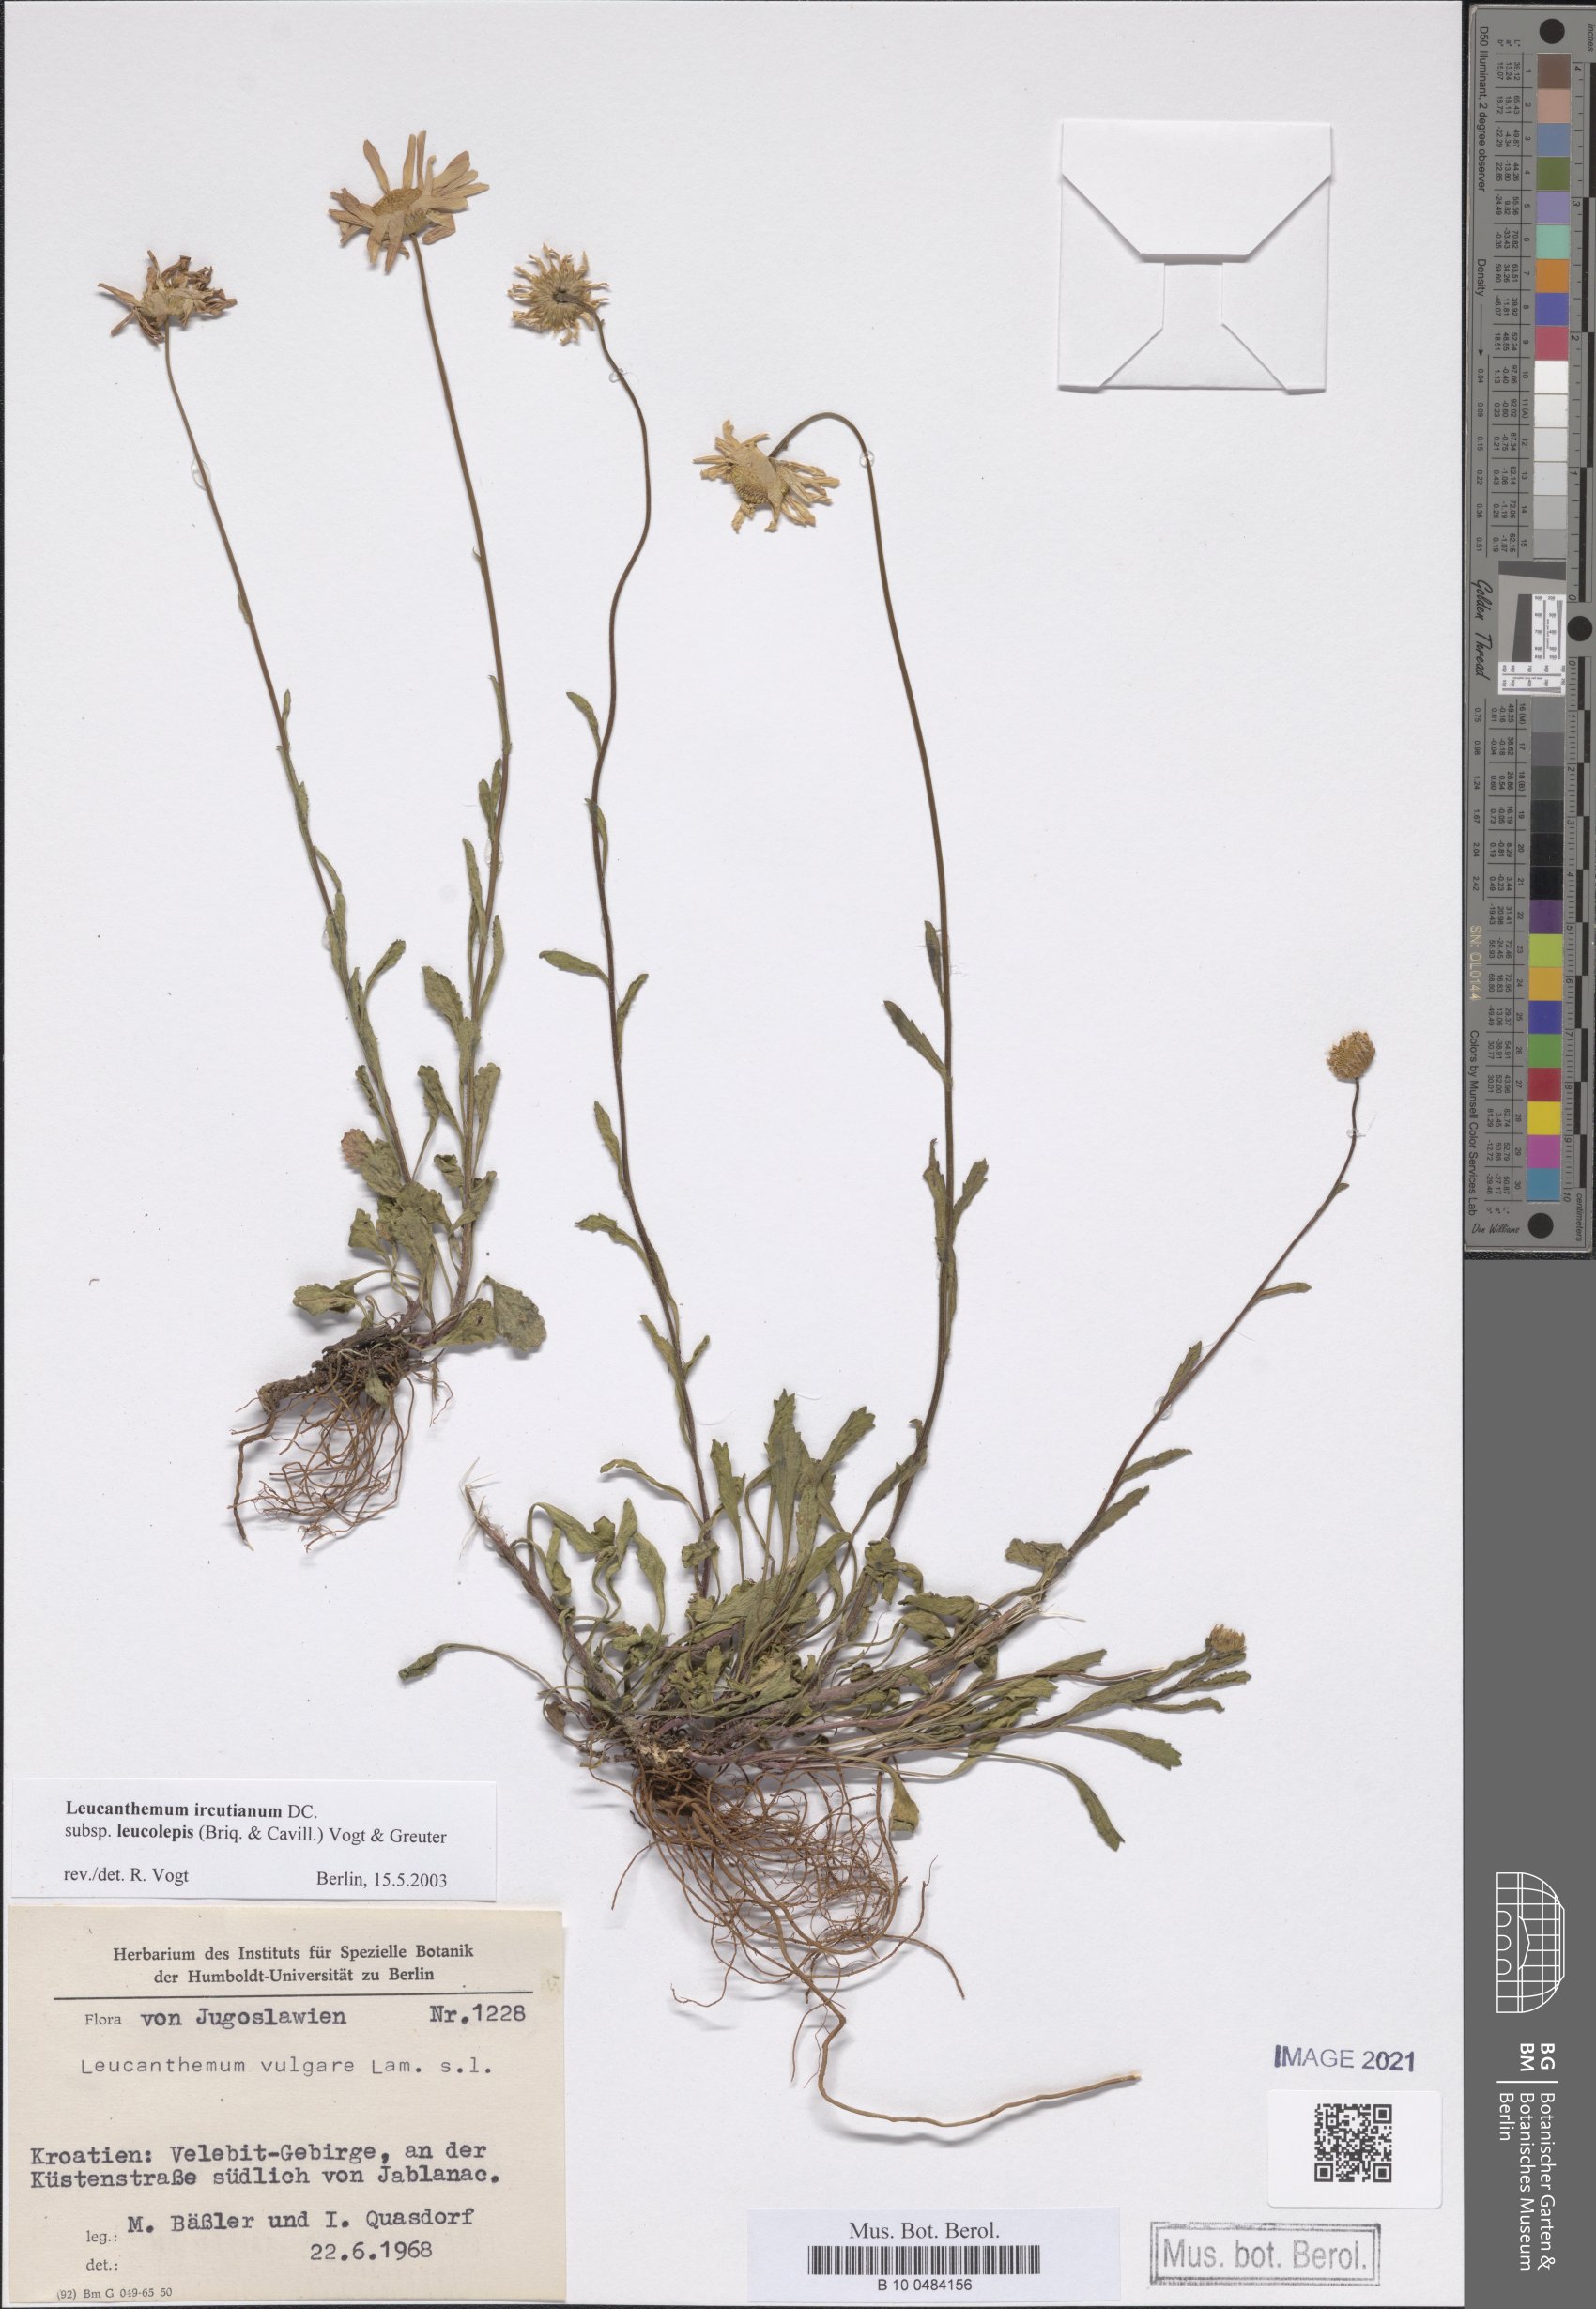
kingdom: Plantae
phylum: Tracheophyta
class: Magnoliopsida
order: Asterales
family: Asteraceae
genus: Leucanthemum
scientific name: Leucanthemum ircutianum
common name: Daisy
